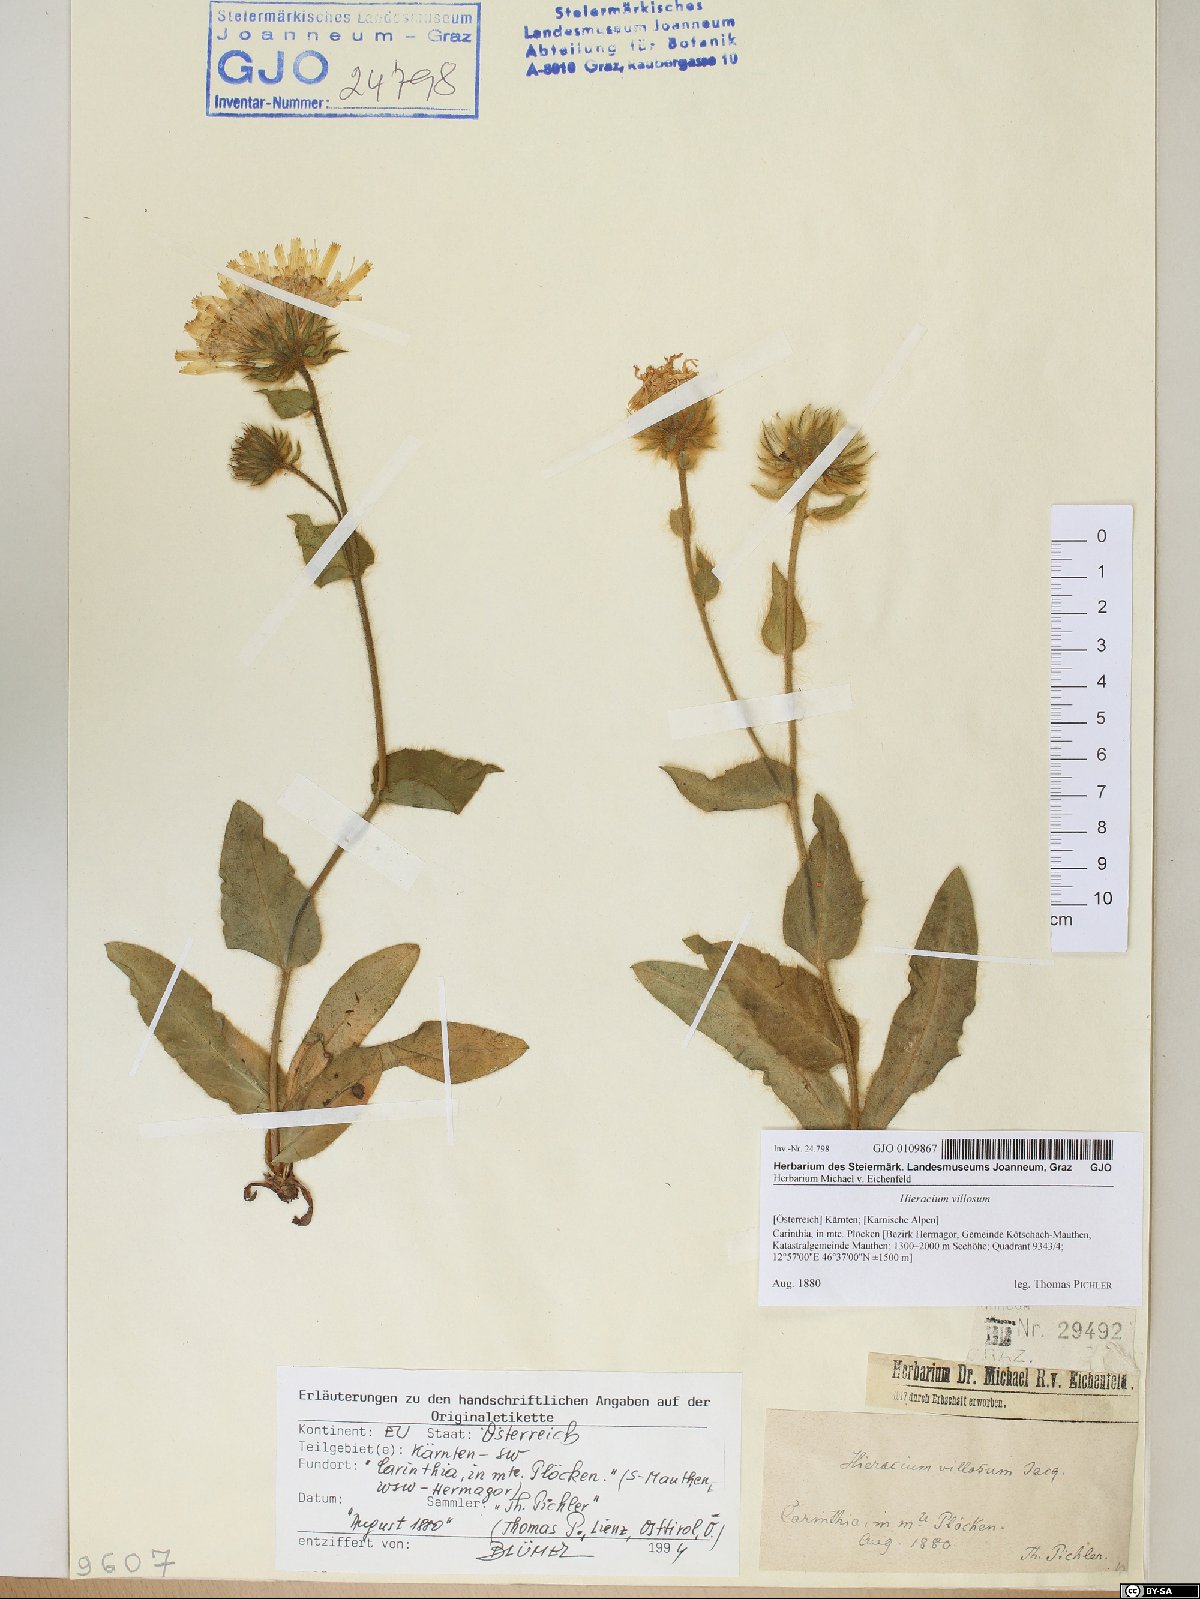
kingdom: Plantae
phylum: Tracheophyta
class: Magnoliopsida
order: Asterales
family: Asteraceae
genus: Hieracium
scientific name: Hieracium villosum
